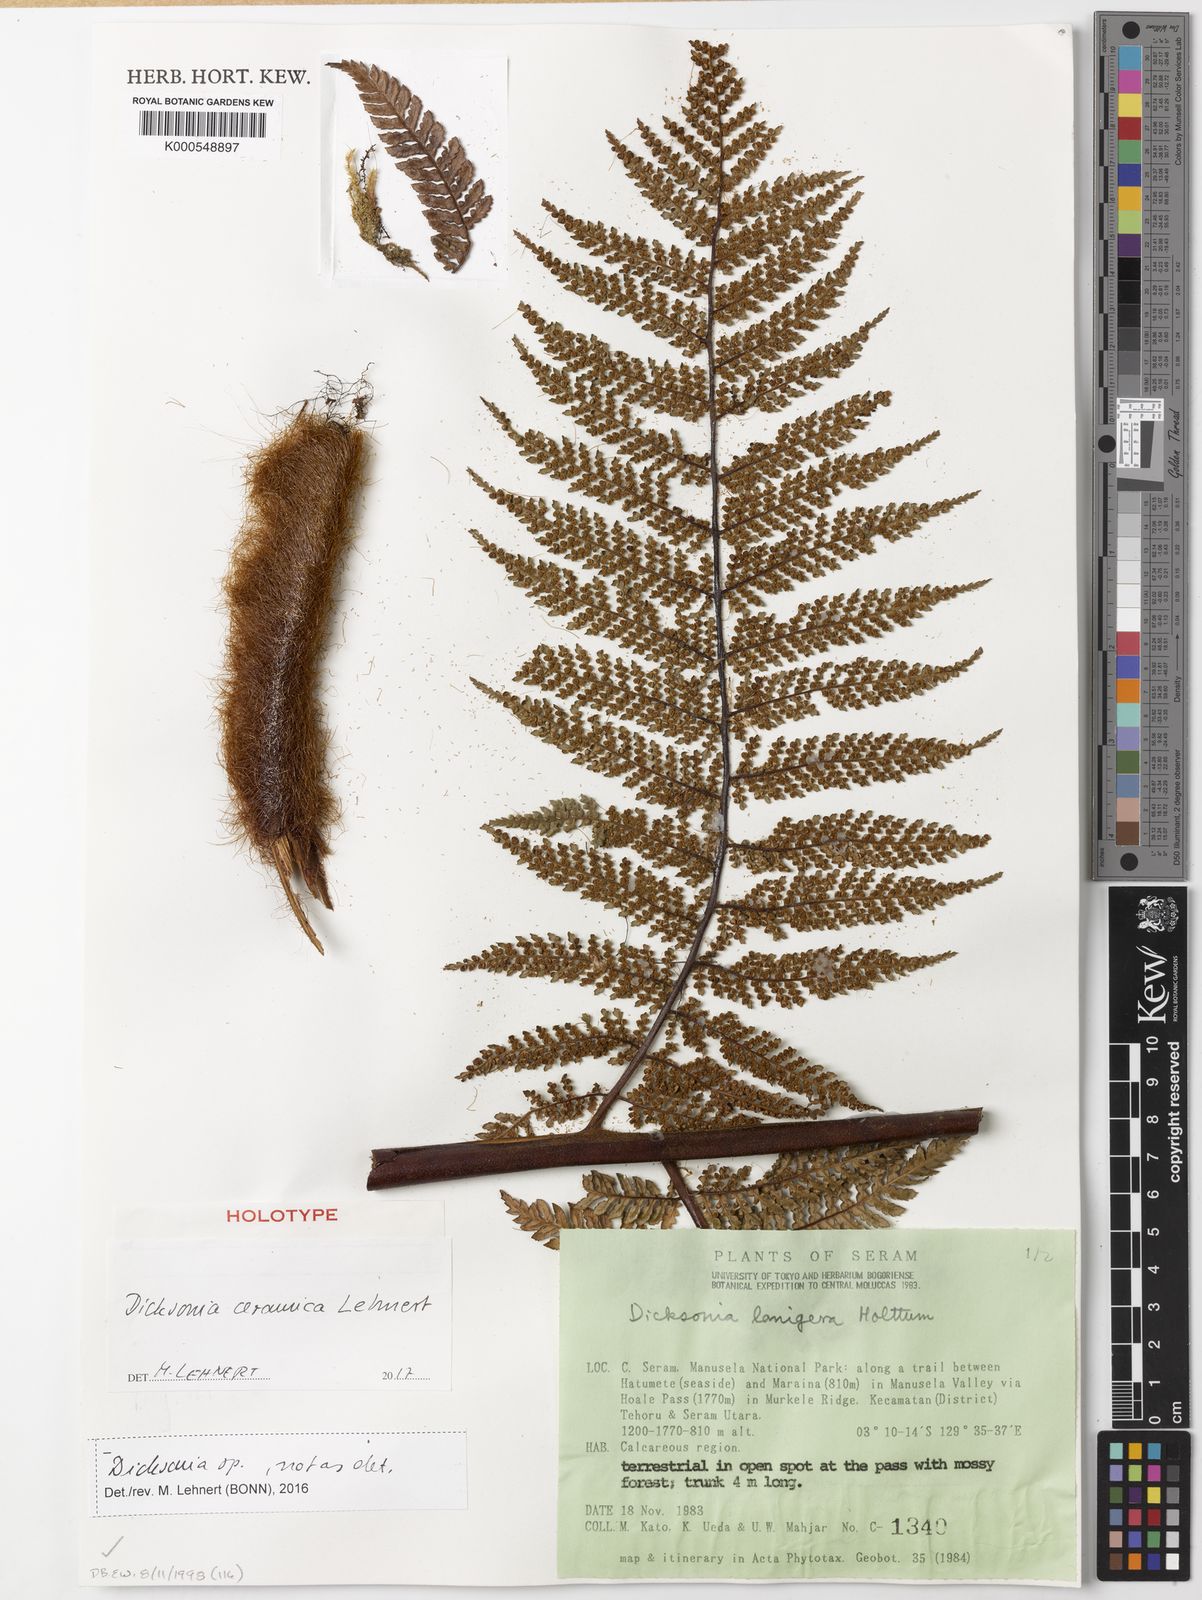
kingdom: Plantae
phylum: Tracheophyta
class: Polypodiopsida
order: Cyatheales
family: Dicksoniaceae
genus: Dicksonia
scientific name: Dicksonia ceramica
